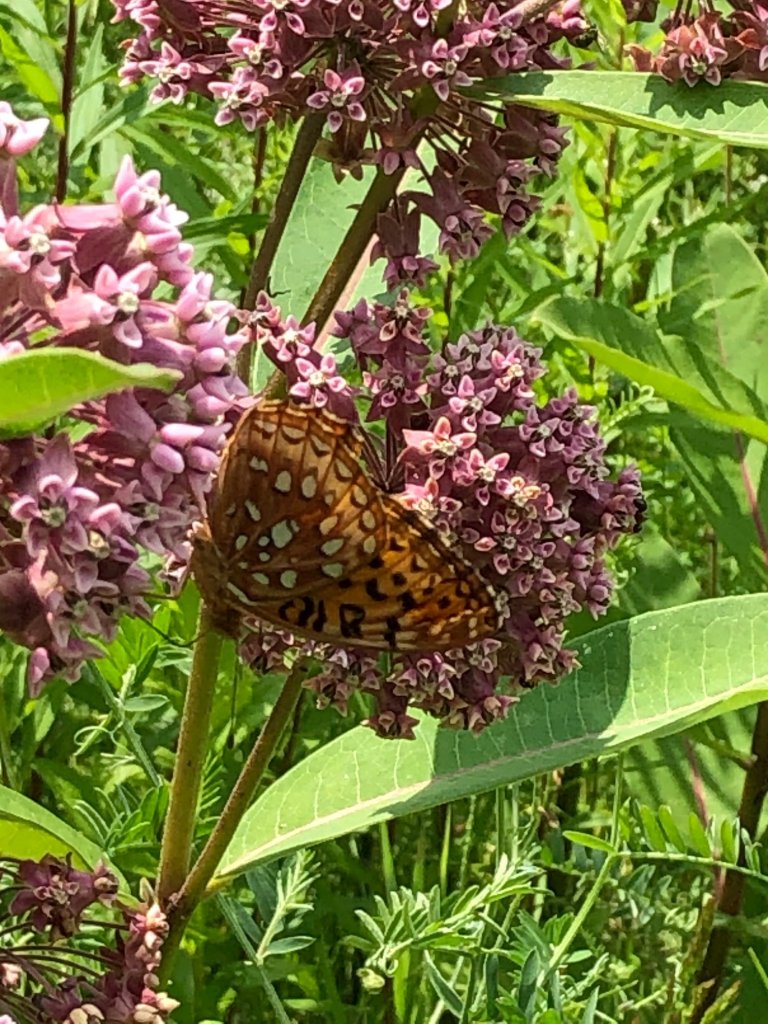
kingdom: Animalia
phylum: Arthropoda
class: Insecta
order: Lepidoptera
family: Nymphalidae
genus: Speyeria
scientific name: Speyeria aphrodite
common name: Aphrodite Fritillary
